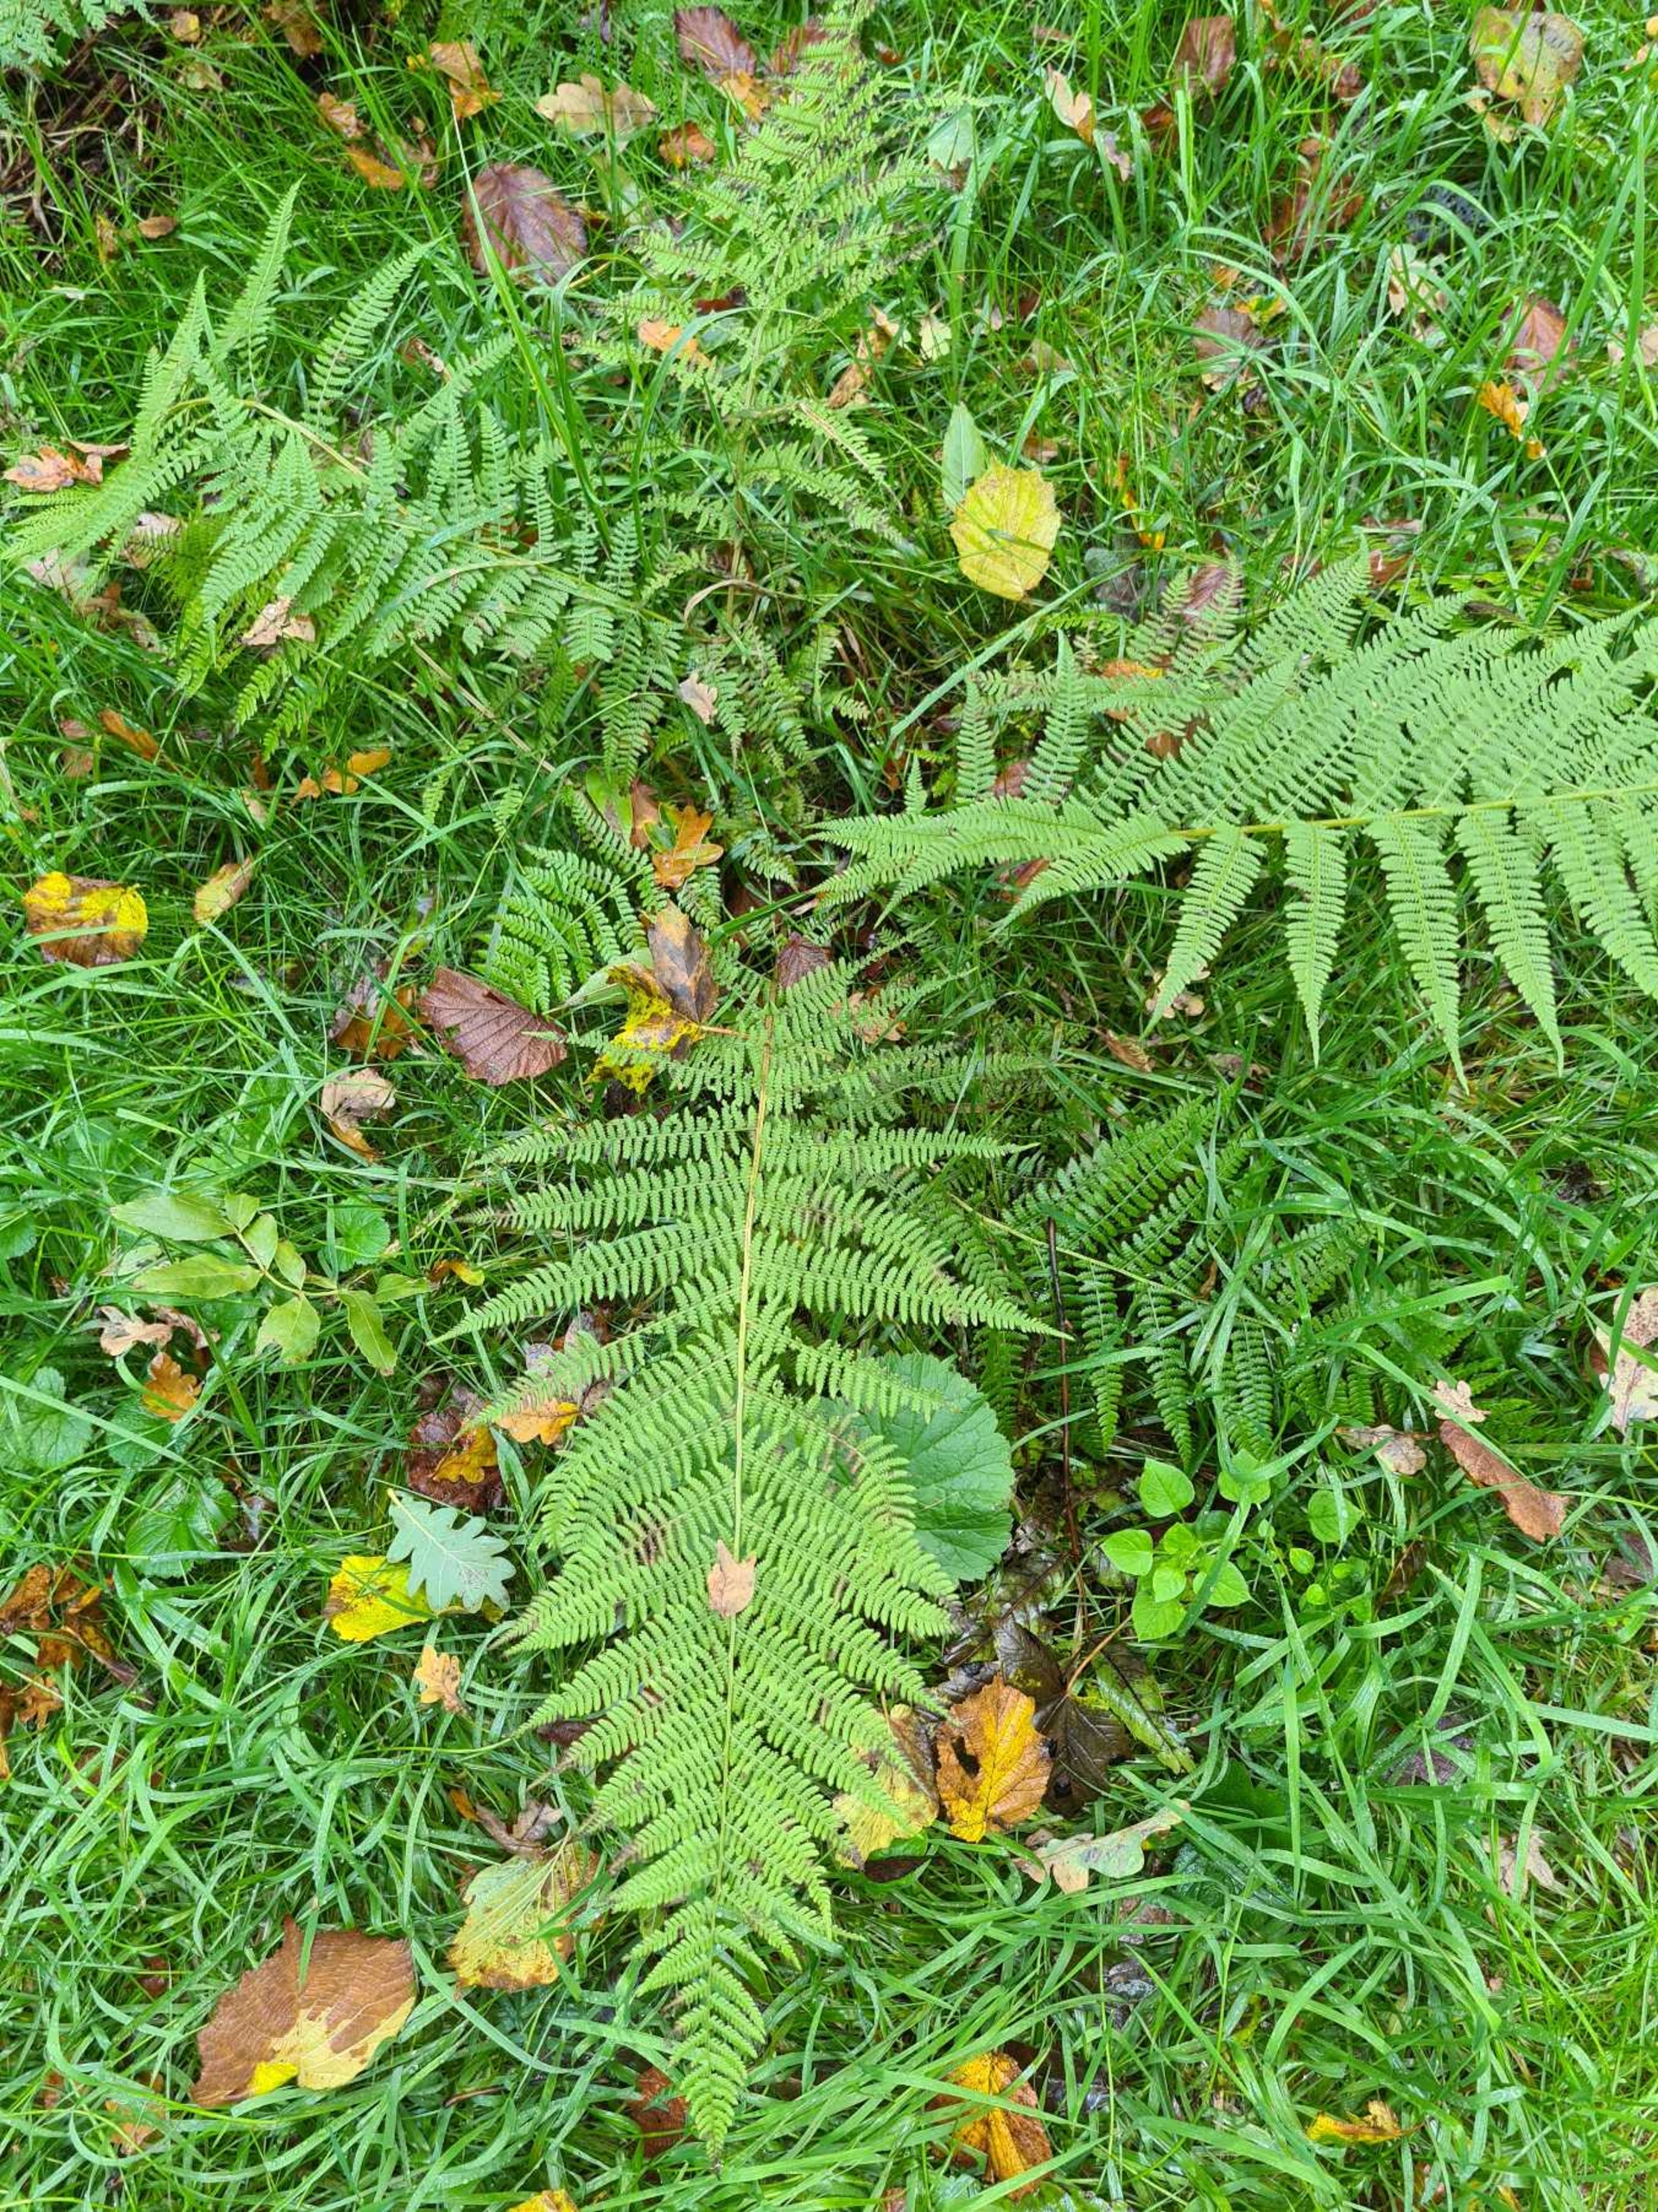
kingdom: Plantae
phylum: Tracheophyta
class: Polypodiopsida
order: Polypodiales
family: Athyriaceae
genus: Athyrium
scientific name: Athyrium filix-femina
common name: Fjerbregne
